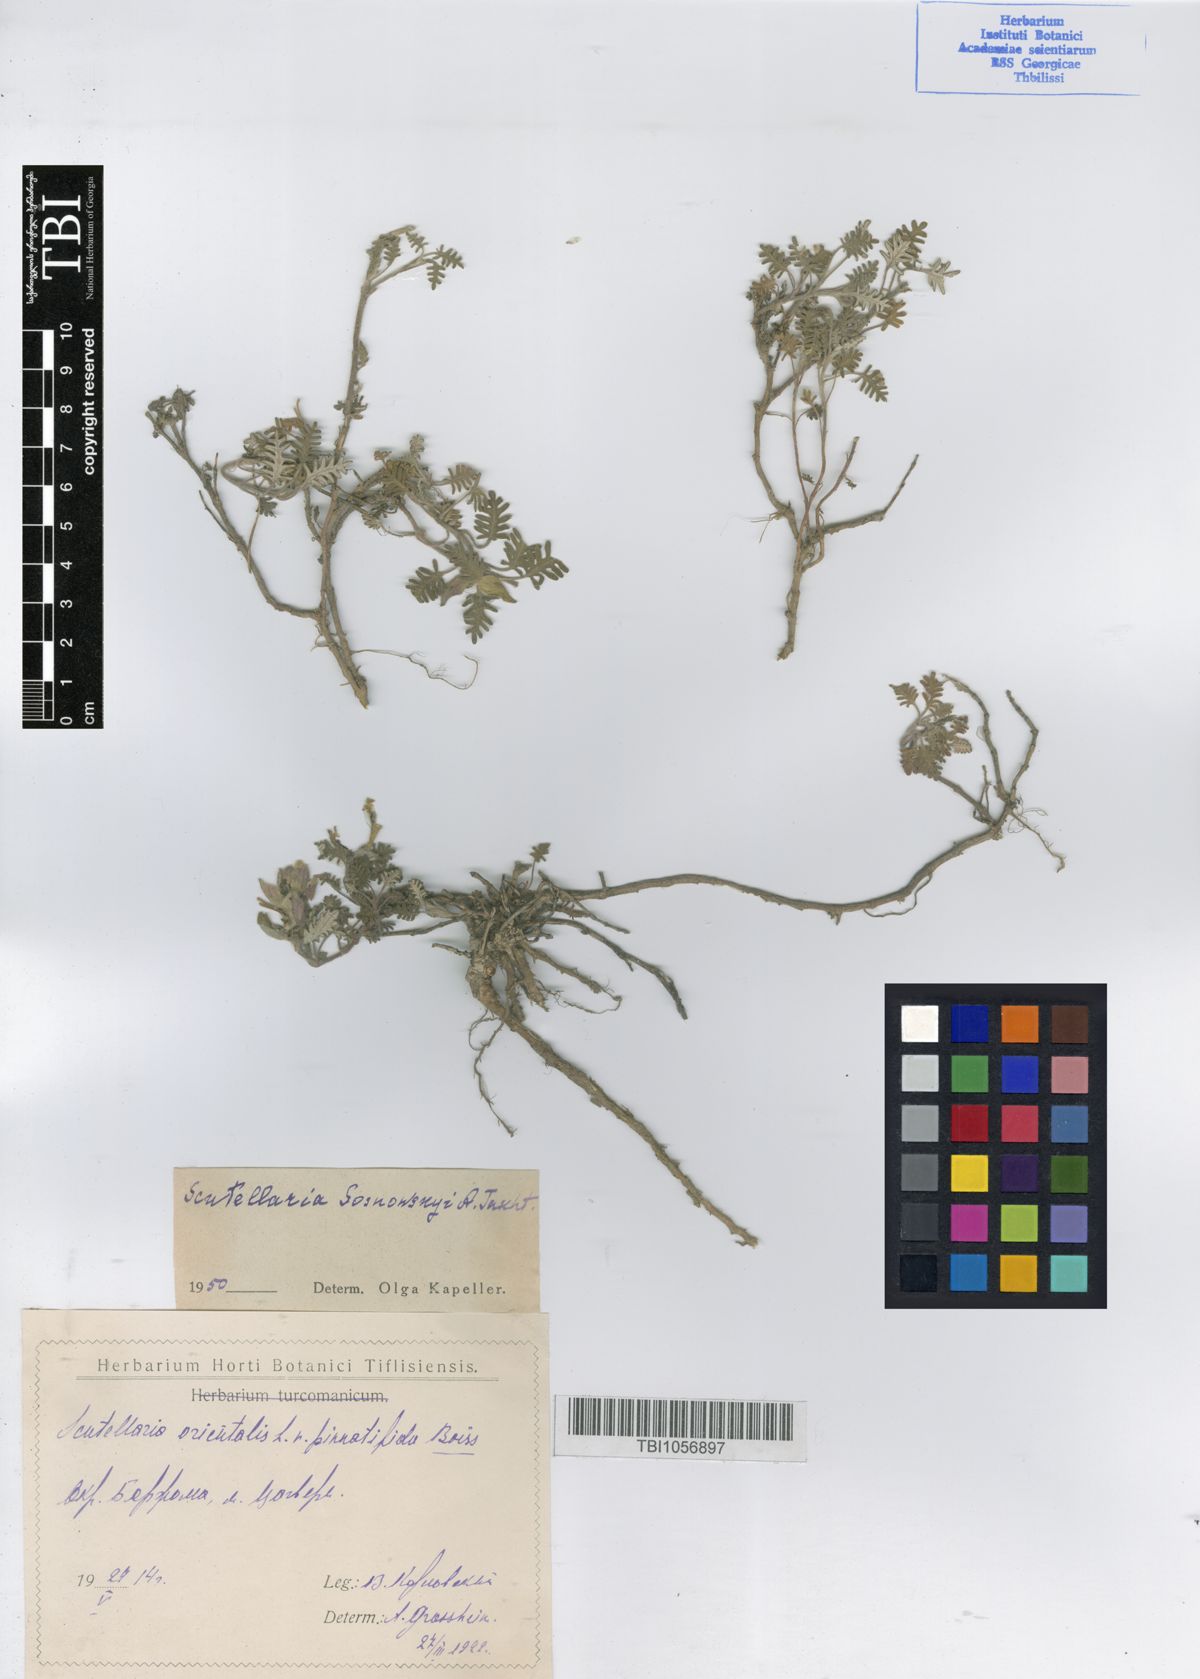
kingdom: Plantae
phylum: Tracheophyta
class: Magnoliopsida
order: Lamiales
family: Lamiaceae
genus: Scutellaria
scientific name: Scutellaria sosnowskyi
